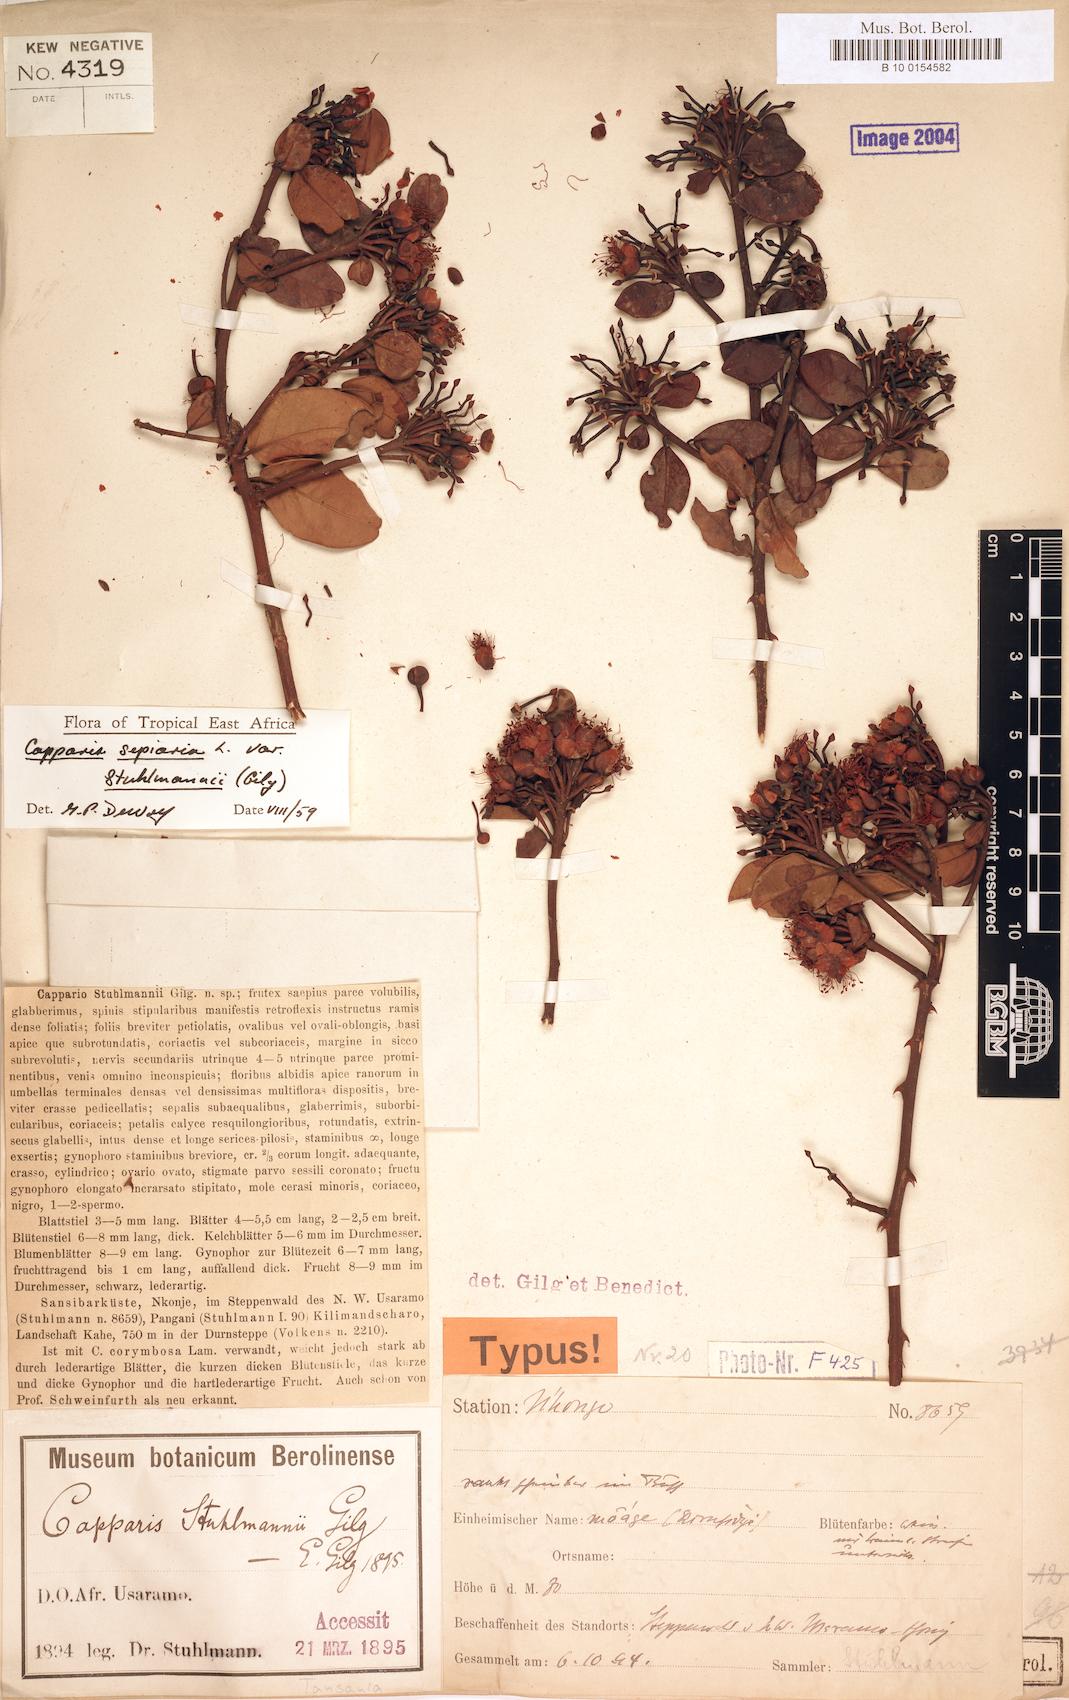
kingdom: Plantae
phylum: Tracheophyta
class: Magnoliopsida
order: Brassicales
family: Capparaceae
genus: Capparis
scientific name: Capparis sepiaria
